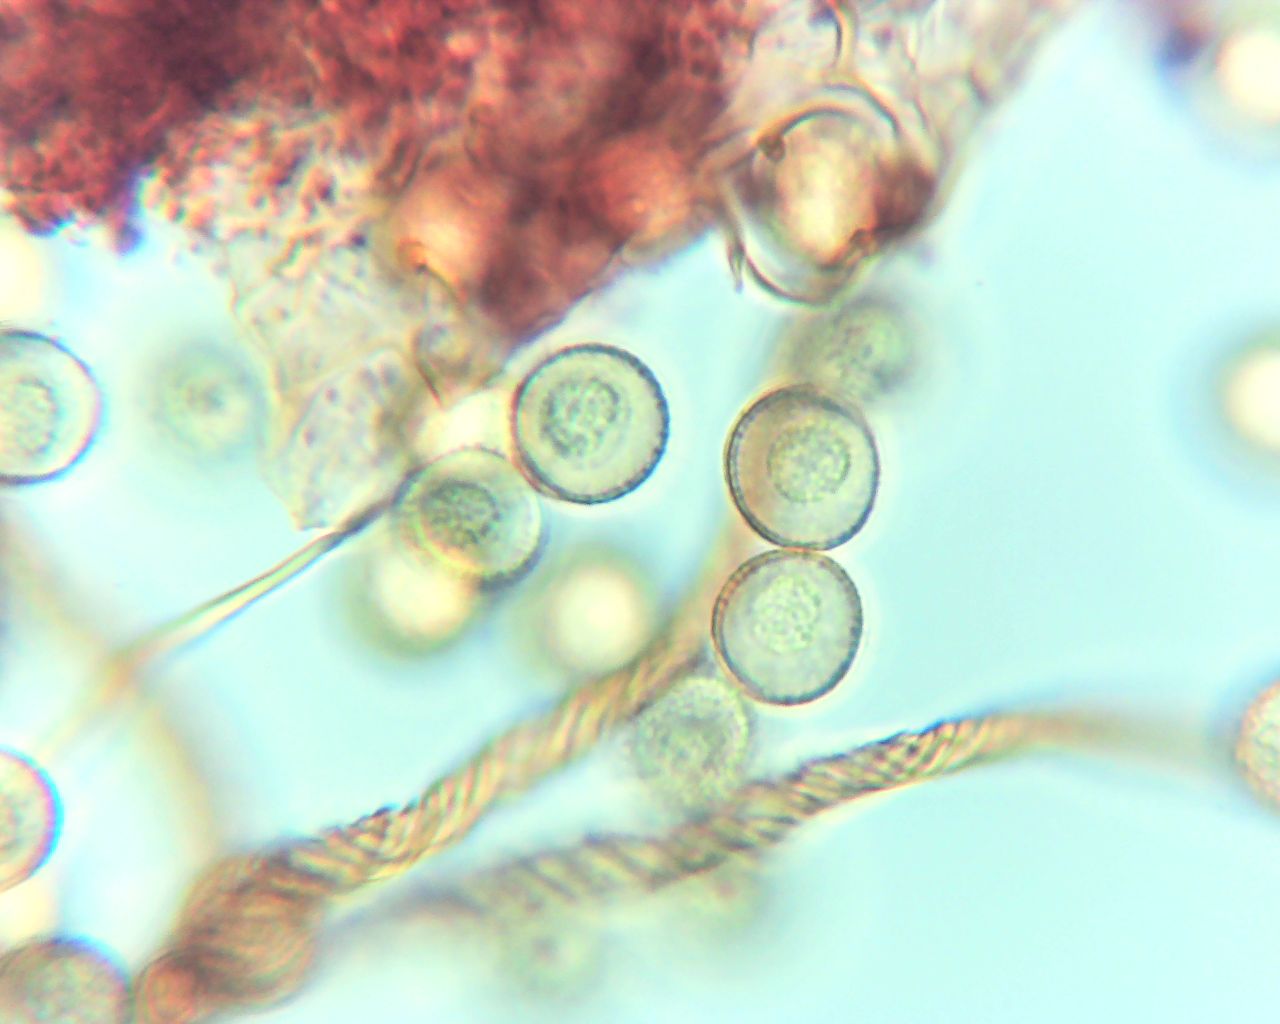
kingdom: Protozoa
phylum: Mycetozoa
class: Myxomycetes
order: Trichiales
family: Trichiaceae
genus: Trichia
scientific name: Trichia botrytis
